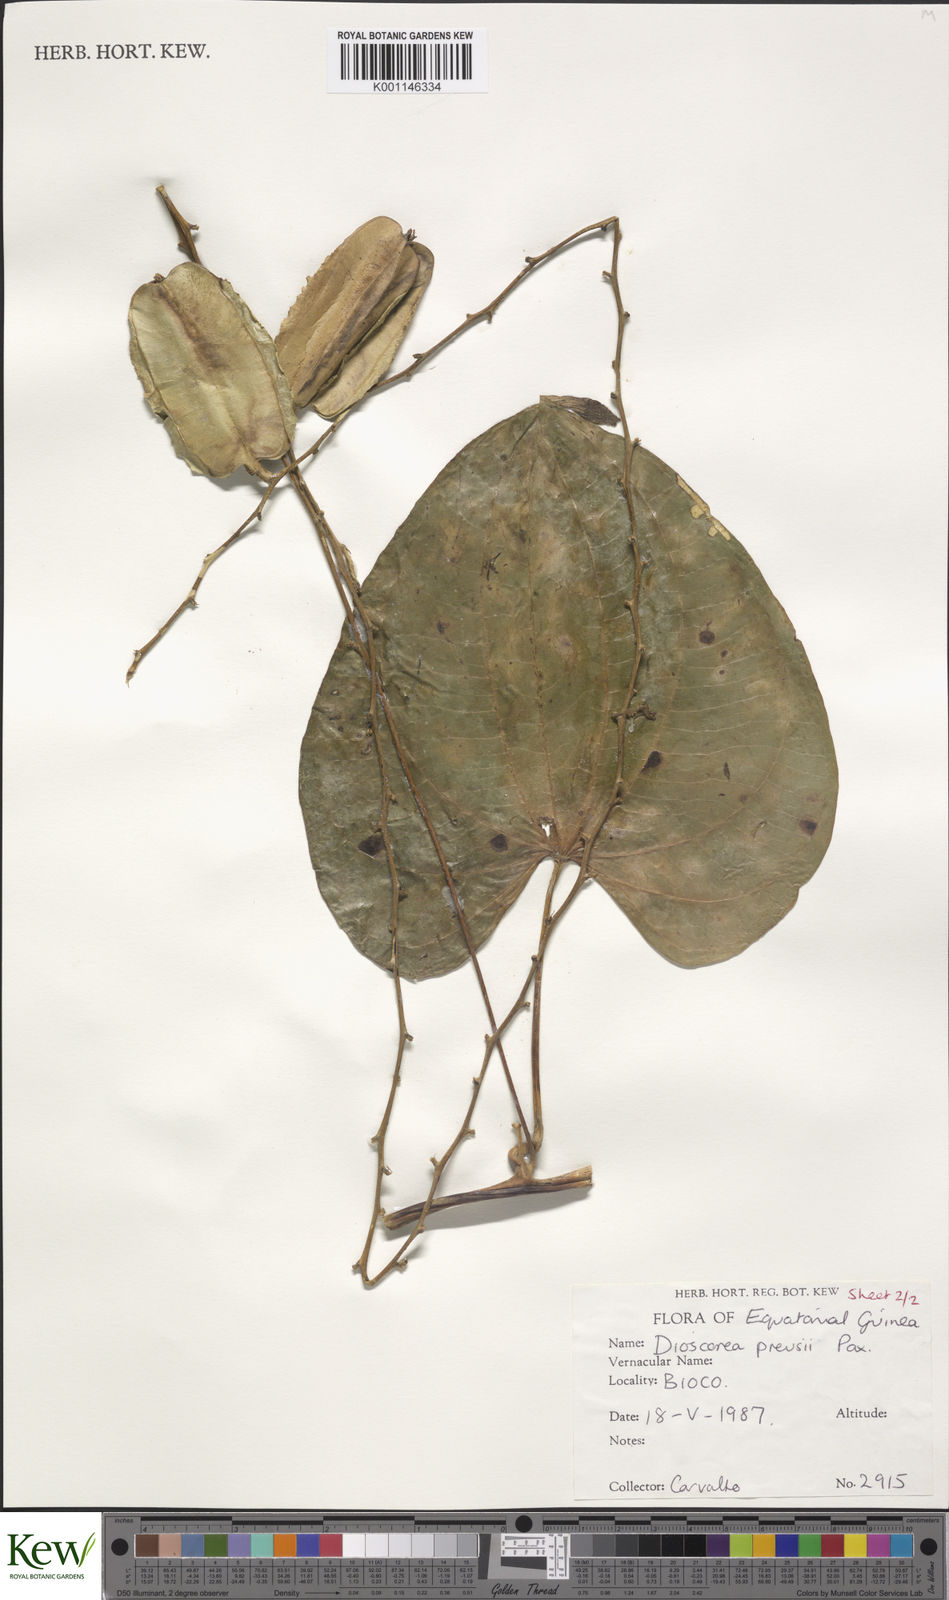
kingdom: Plantae
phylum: Tracheophyta
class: Liliopsida
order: Dioscoreales
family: Dioscoreaceae
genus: Dioscorea
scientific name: Dioscorea preussii
